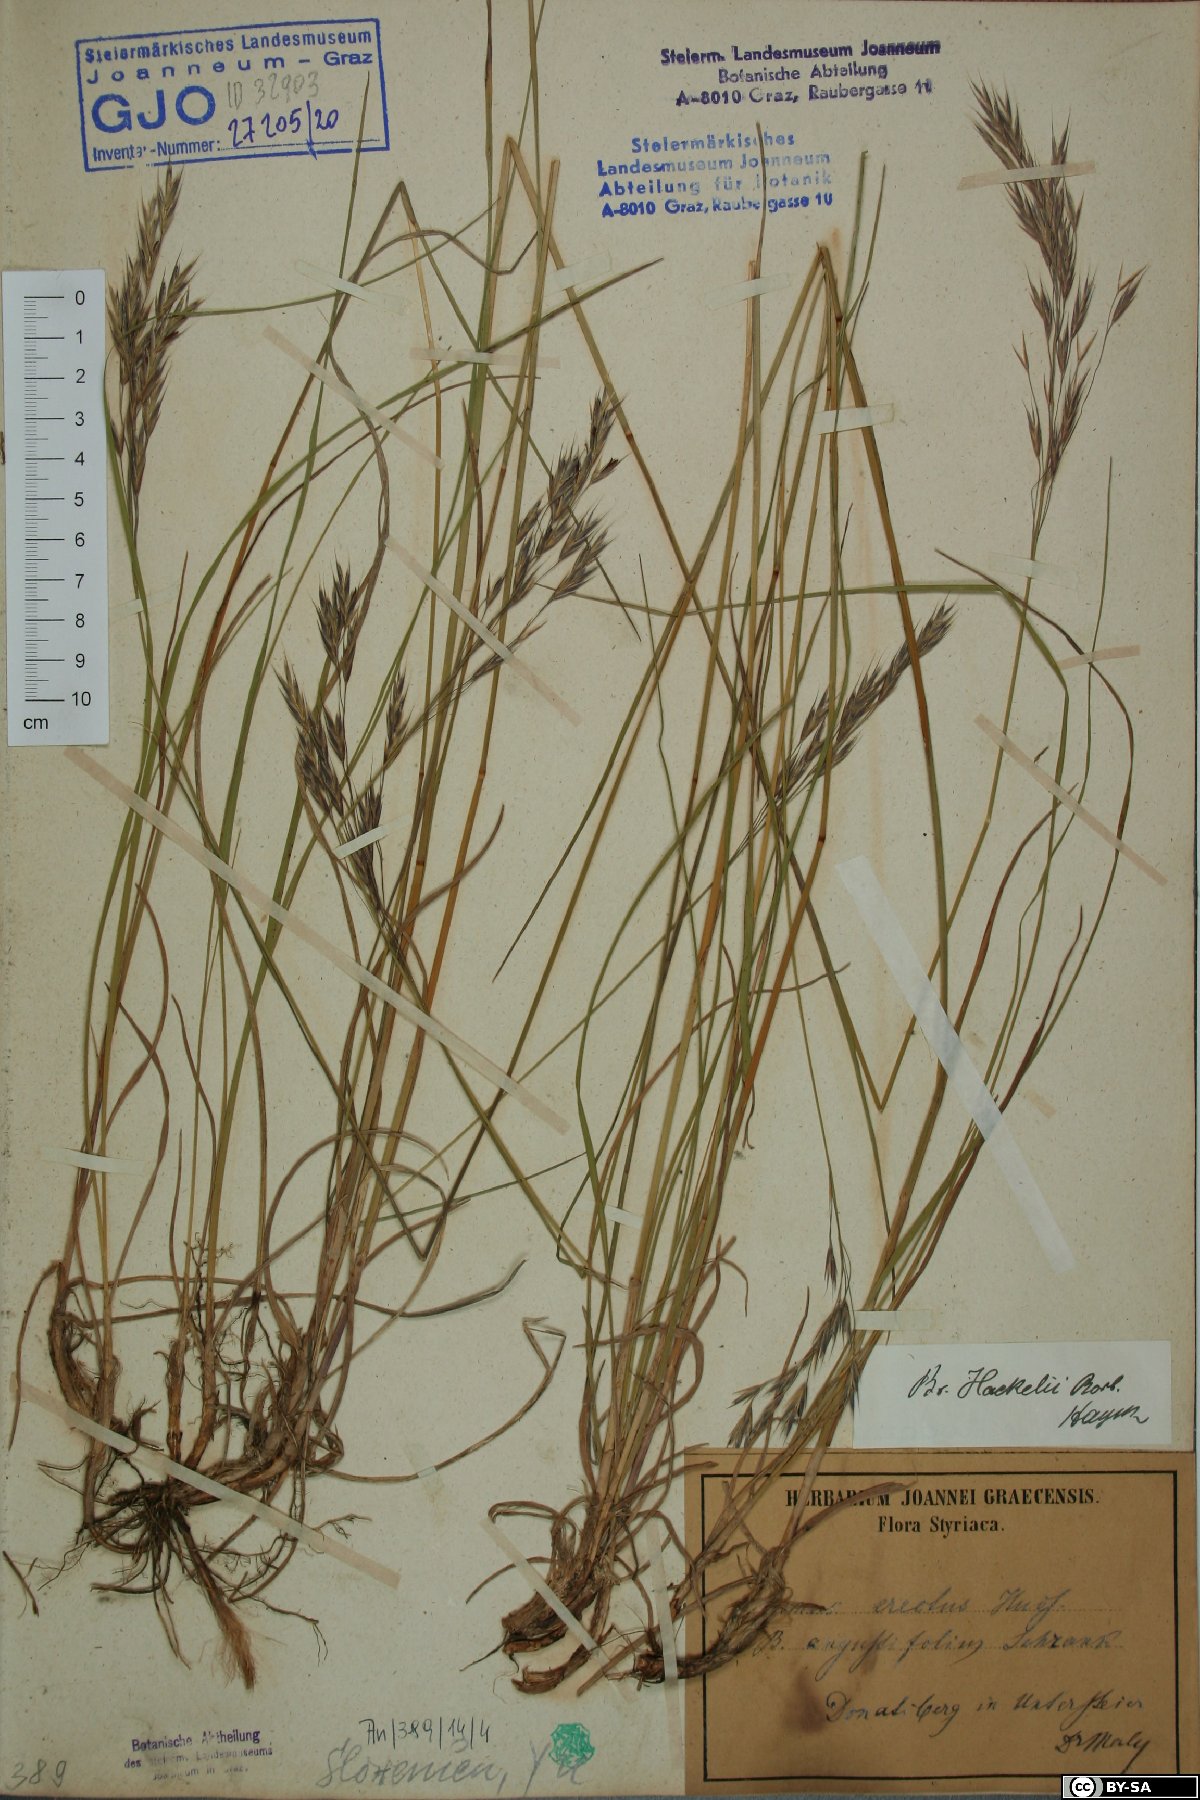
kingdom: Plantae
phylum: Tracheophyta
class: Liliopsida
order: Poales
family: Poaceae
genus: Bromus
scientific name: Bromus erectus
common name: Erect brome
